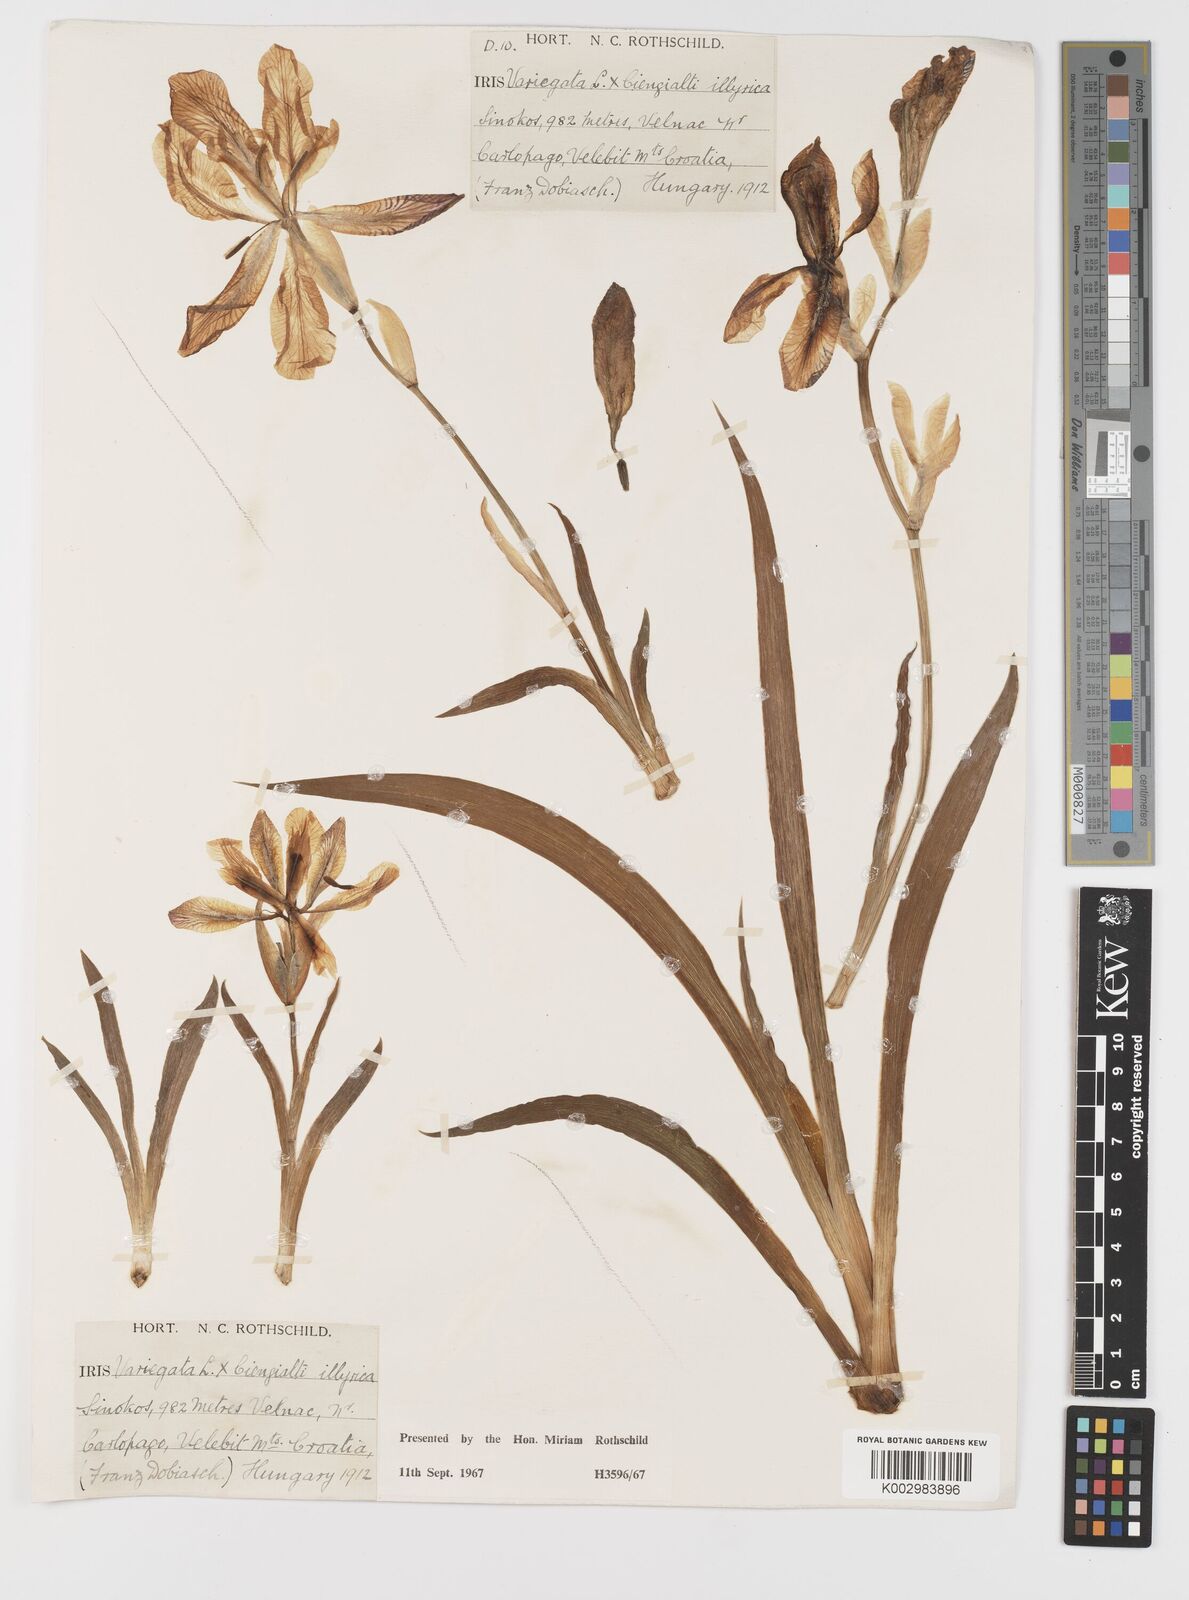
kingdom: Plantae
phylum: Tracheophyta
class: Liliopsida
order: Asparagales
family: Iridaceae
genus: Iris
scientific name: Iris germanica
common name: German iris
